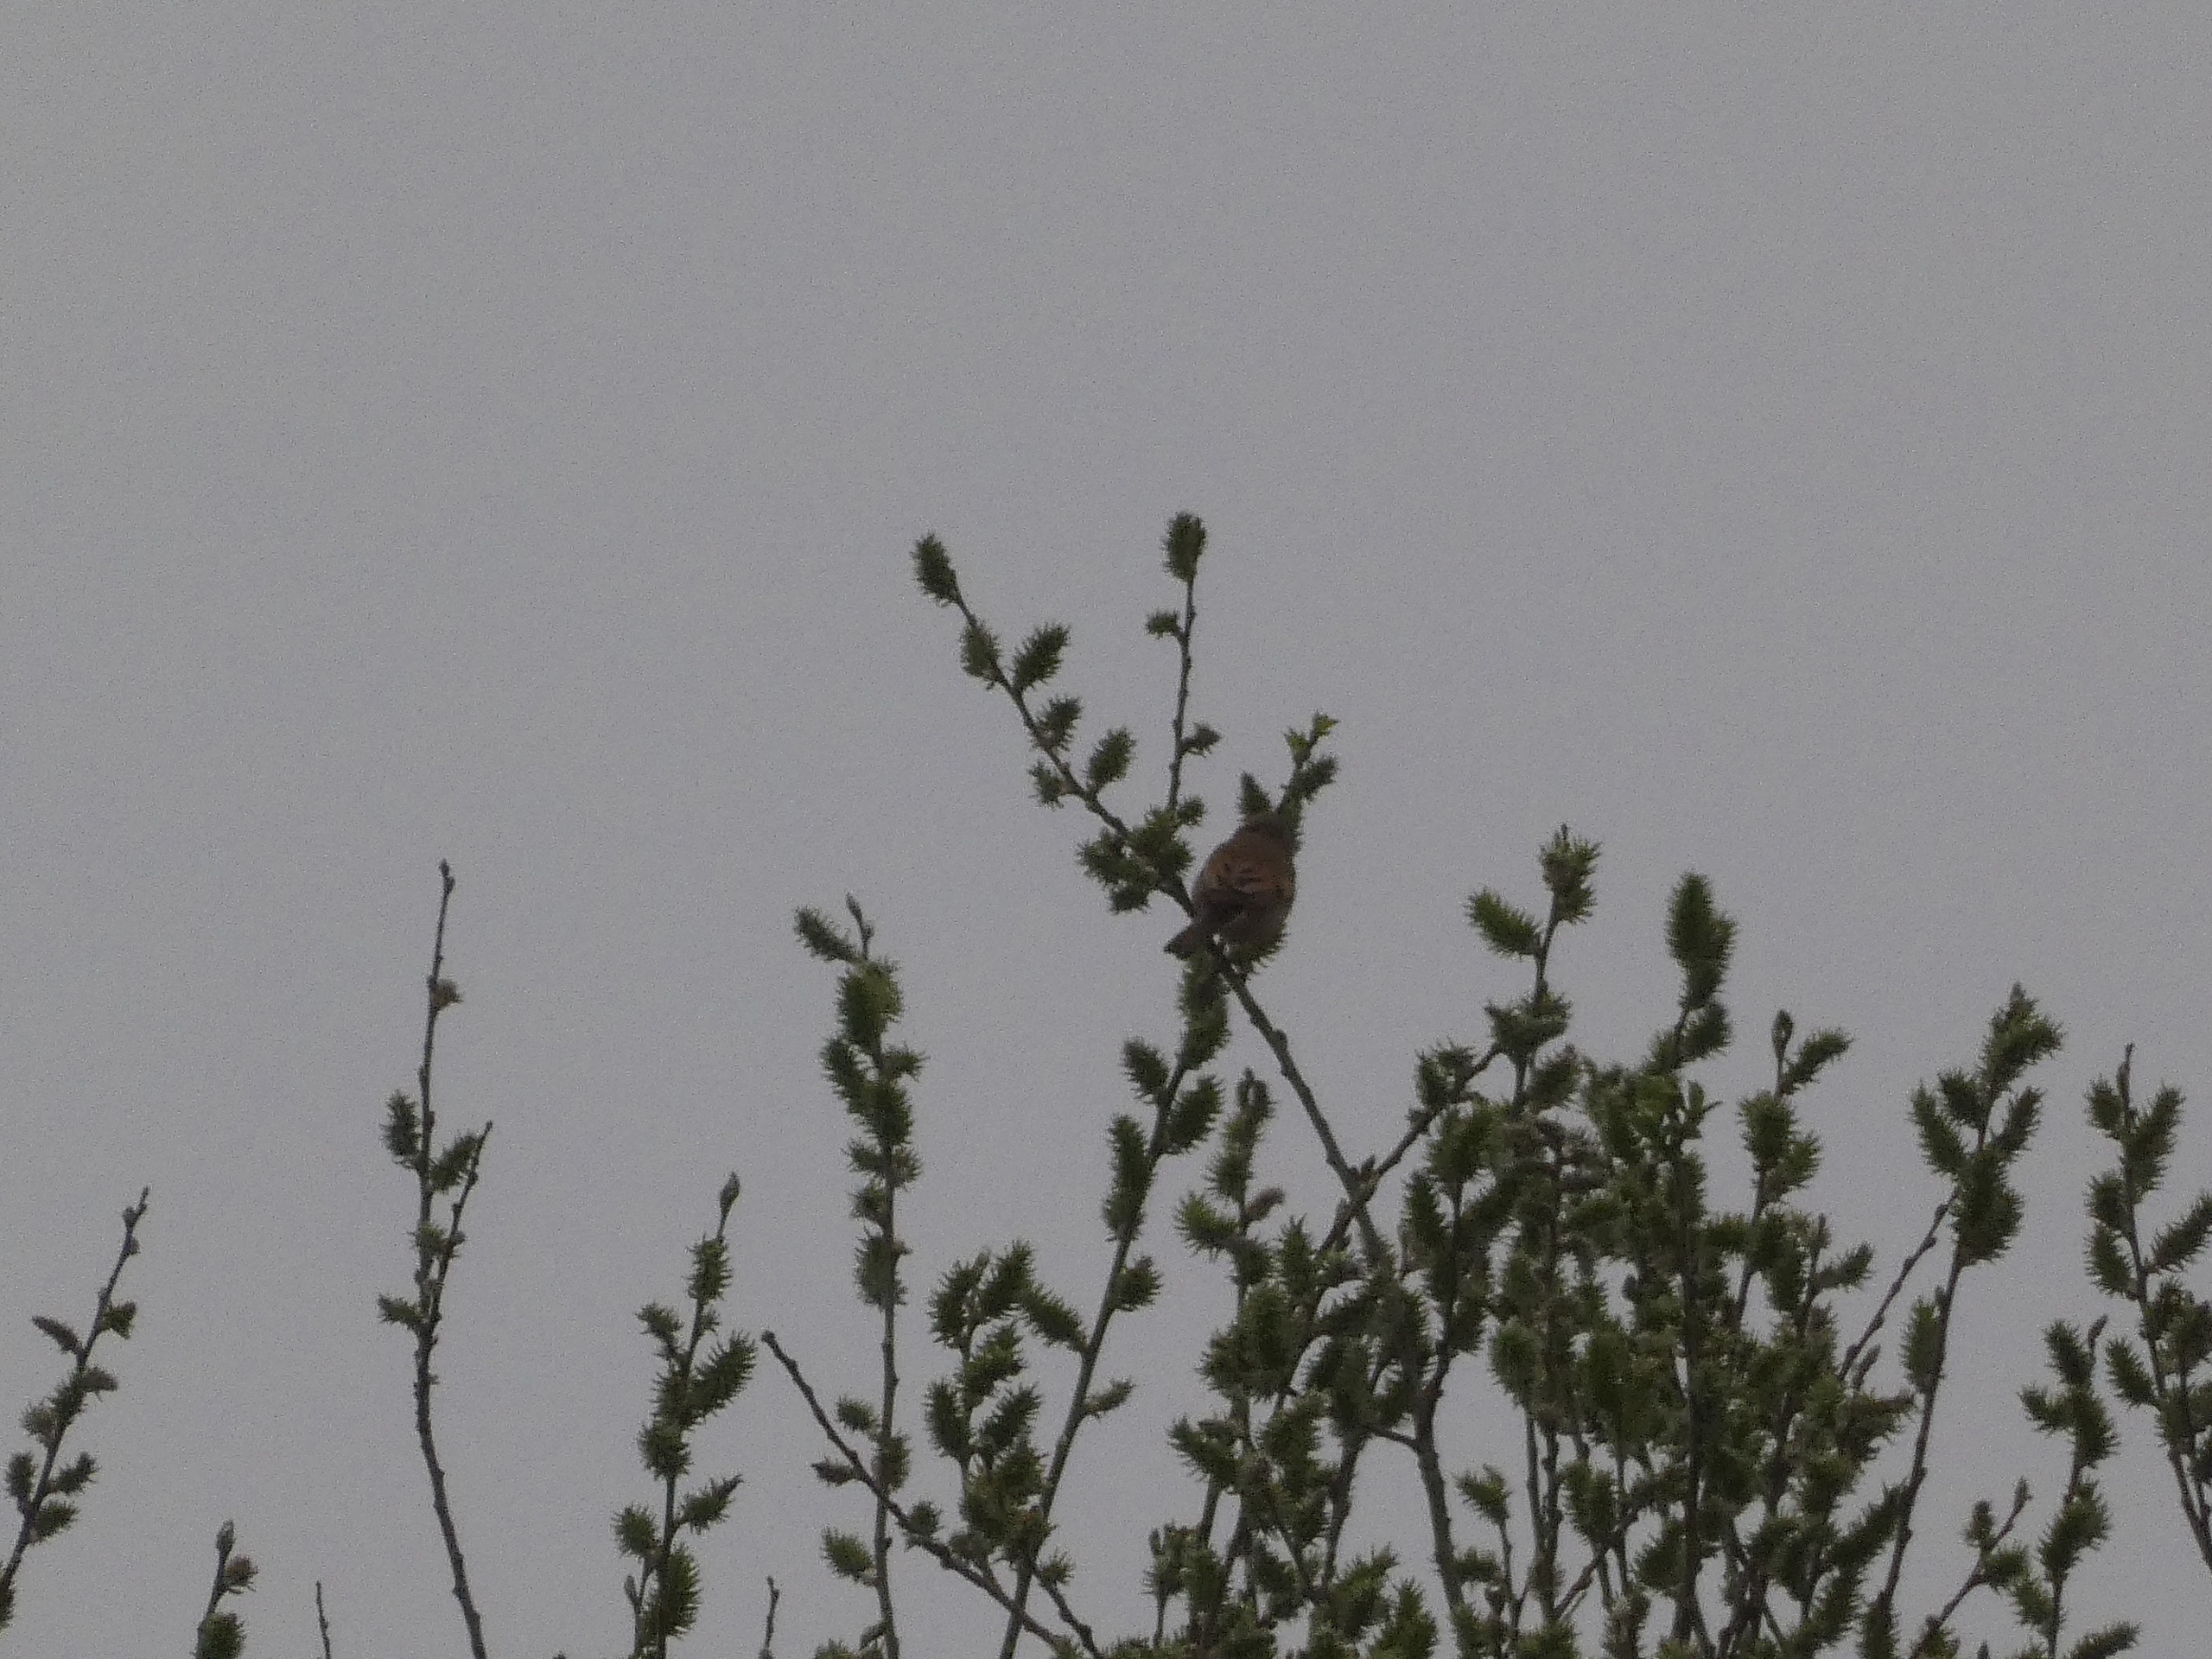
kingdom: Animalia
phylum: Chordata
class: Aves
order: Passeriformes
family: Sylviidae
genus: Sylvia
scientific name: Sylvia communis
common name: Tornsanger
